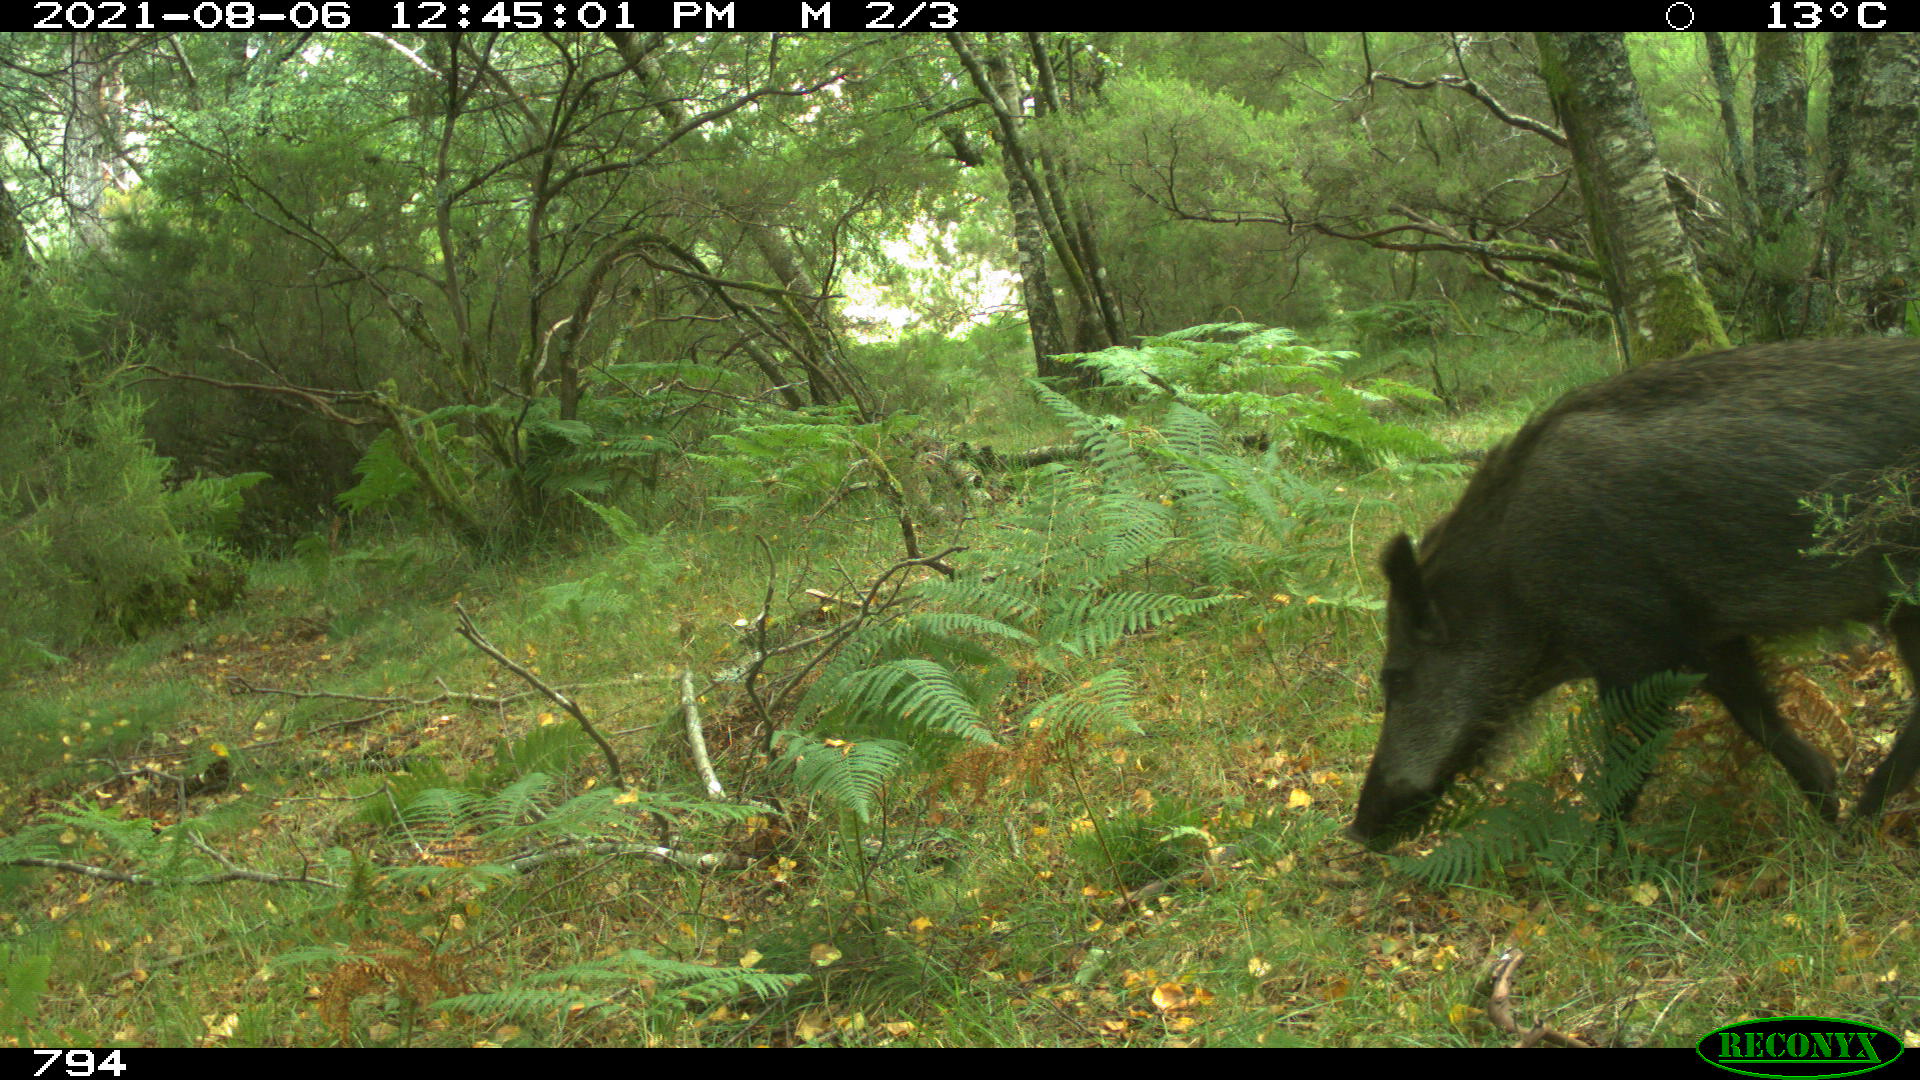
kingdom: Animalia
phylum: Chordata
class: Mammalia
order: Artiodactyla
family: Suidae
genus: Sus
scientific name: Sus scrofa
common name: Wild boar
